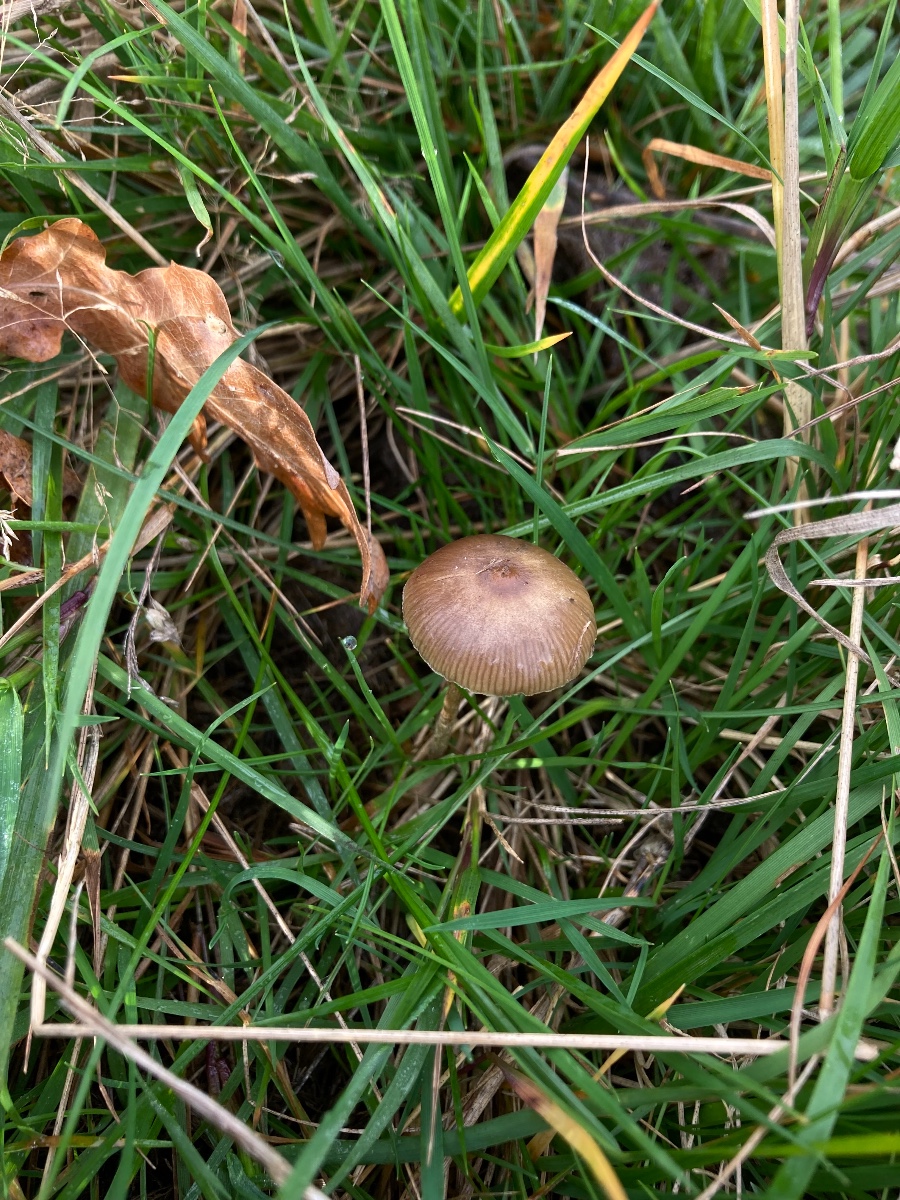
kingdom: Fungi
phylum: Basidiomycota
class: Agaricomycetes
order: Agaricales
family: Hymenogastraceae
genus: Psilocybe
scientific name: Psilocybe fimetaria
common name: prægtig nøgenhat
